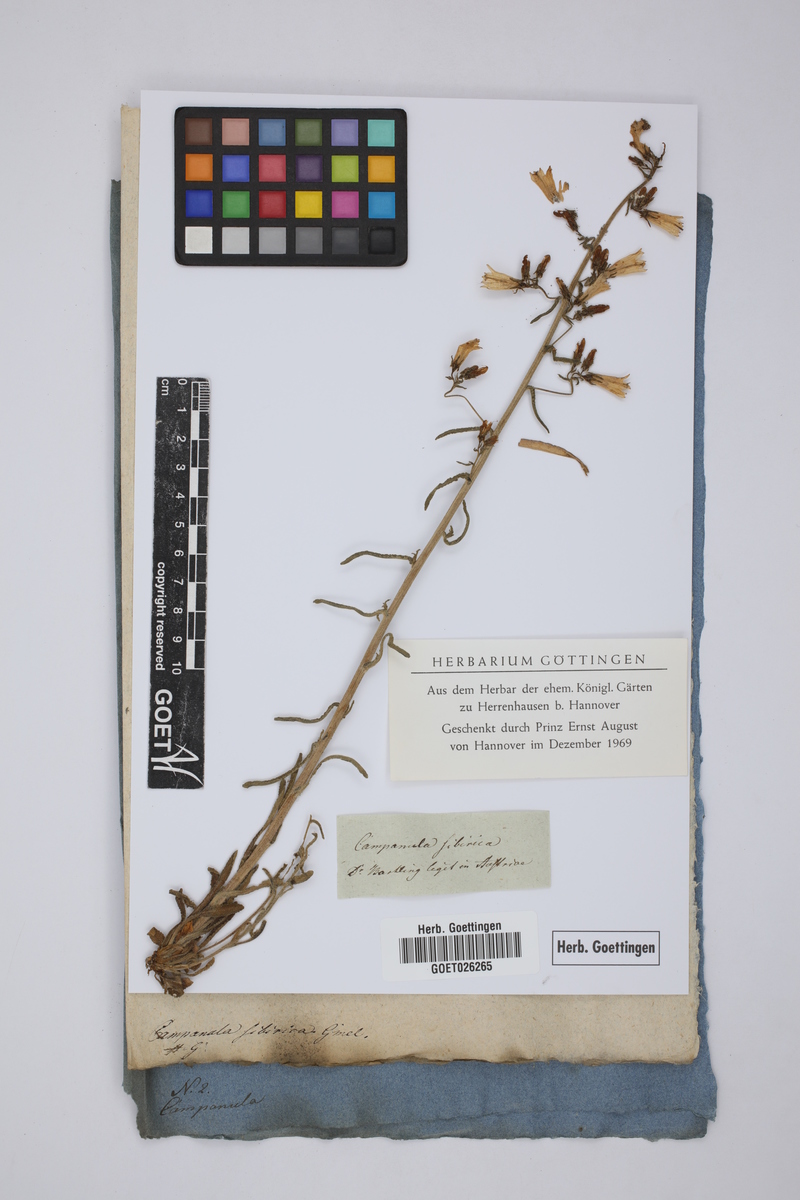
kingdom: Plantae
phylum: Tracheophyta
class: Magnoliopsida
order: Asterales
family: Campanulaceae
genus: Campanula
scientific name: Campanula sibirica
